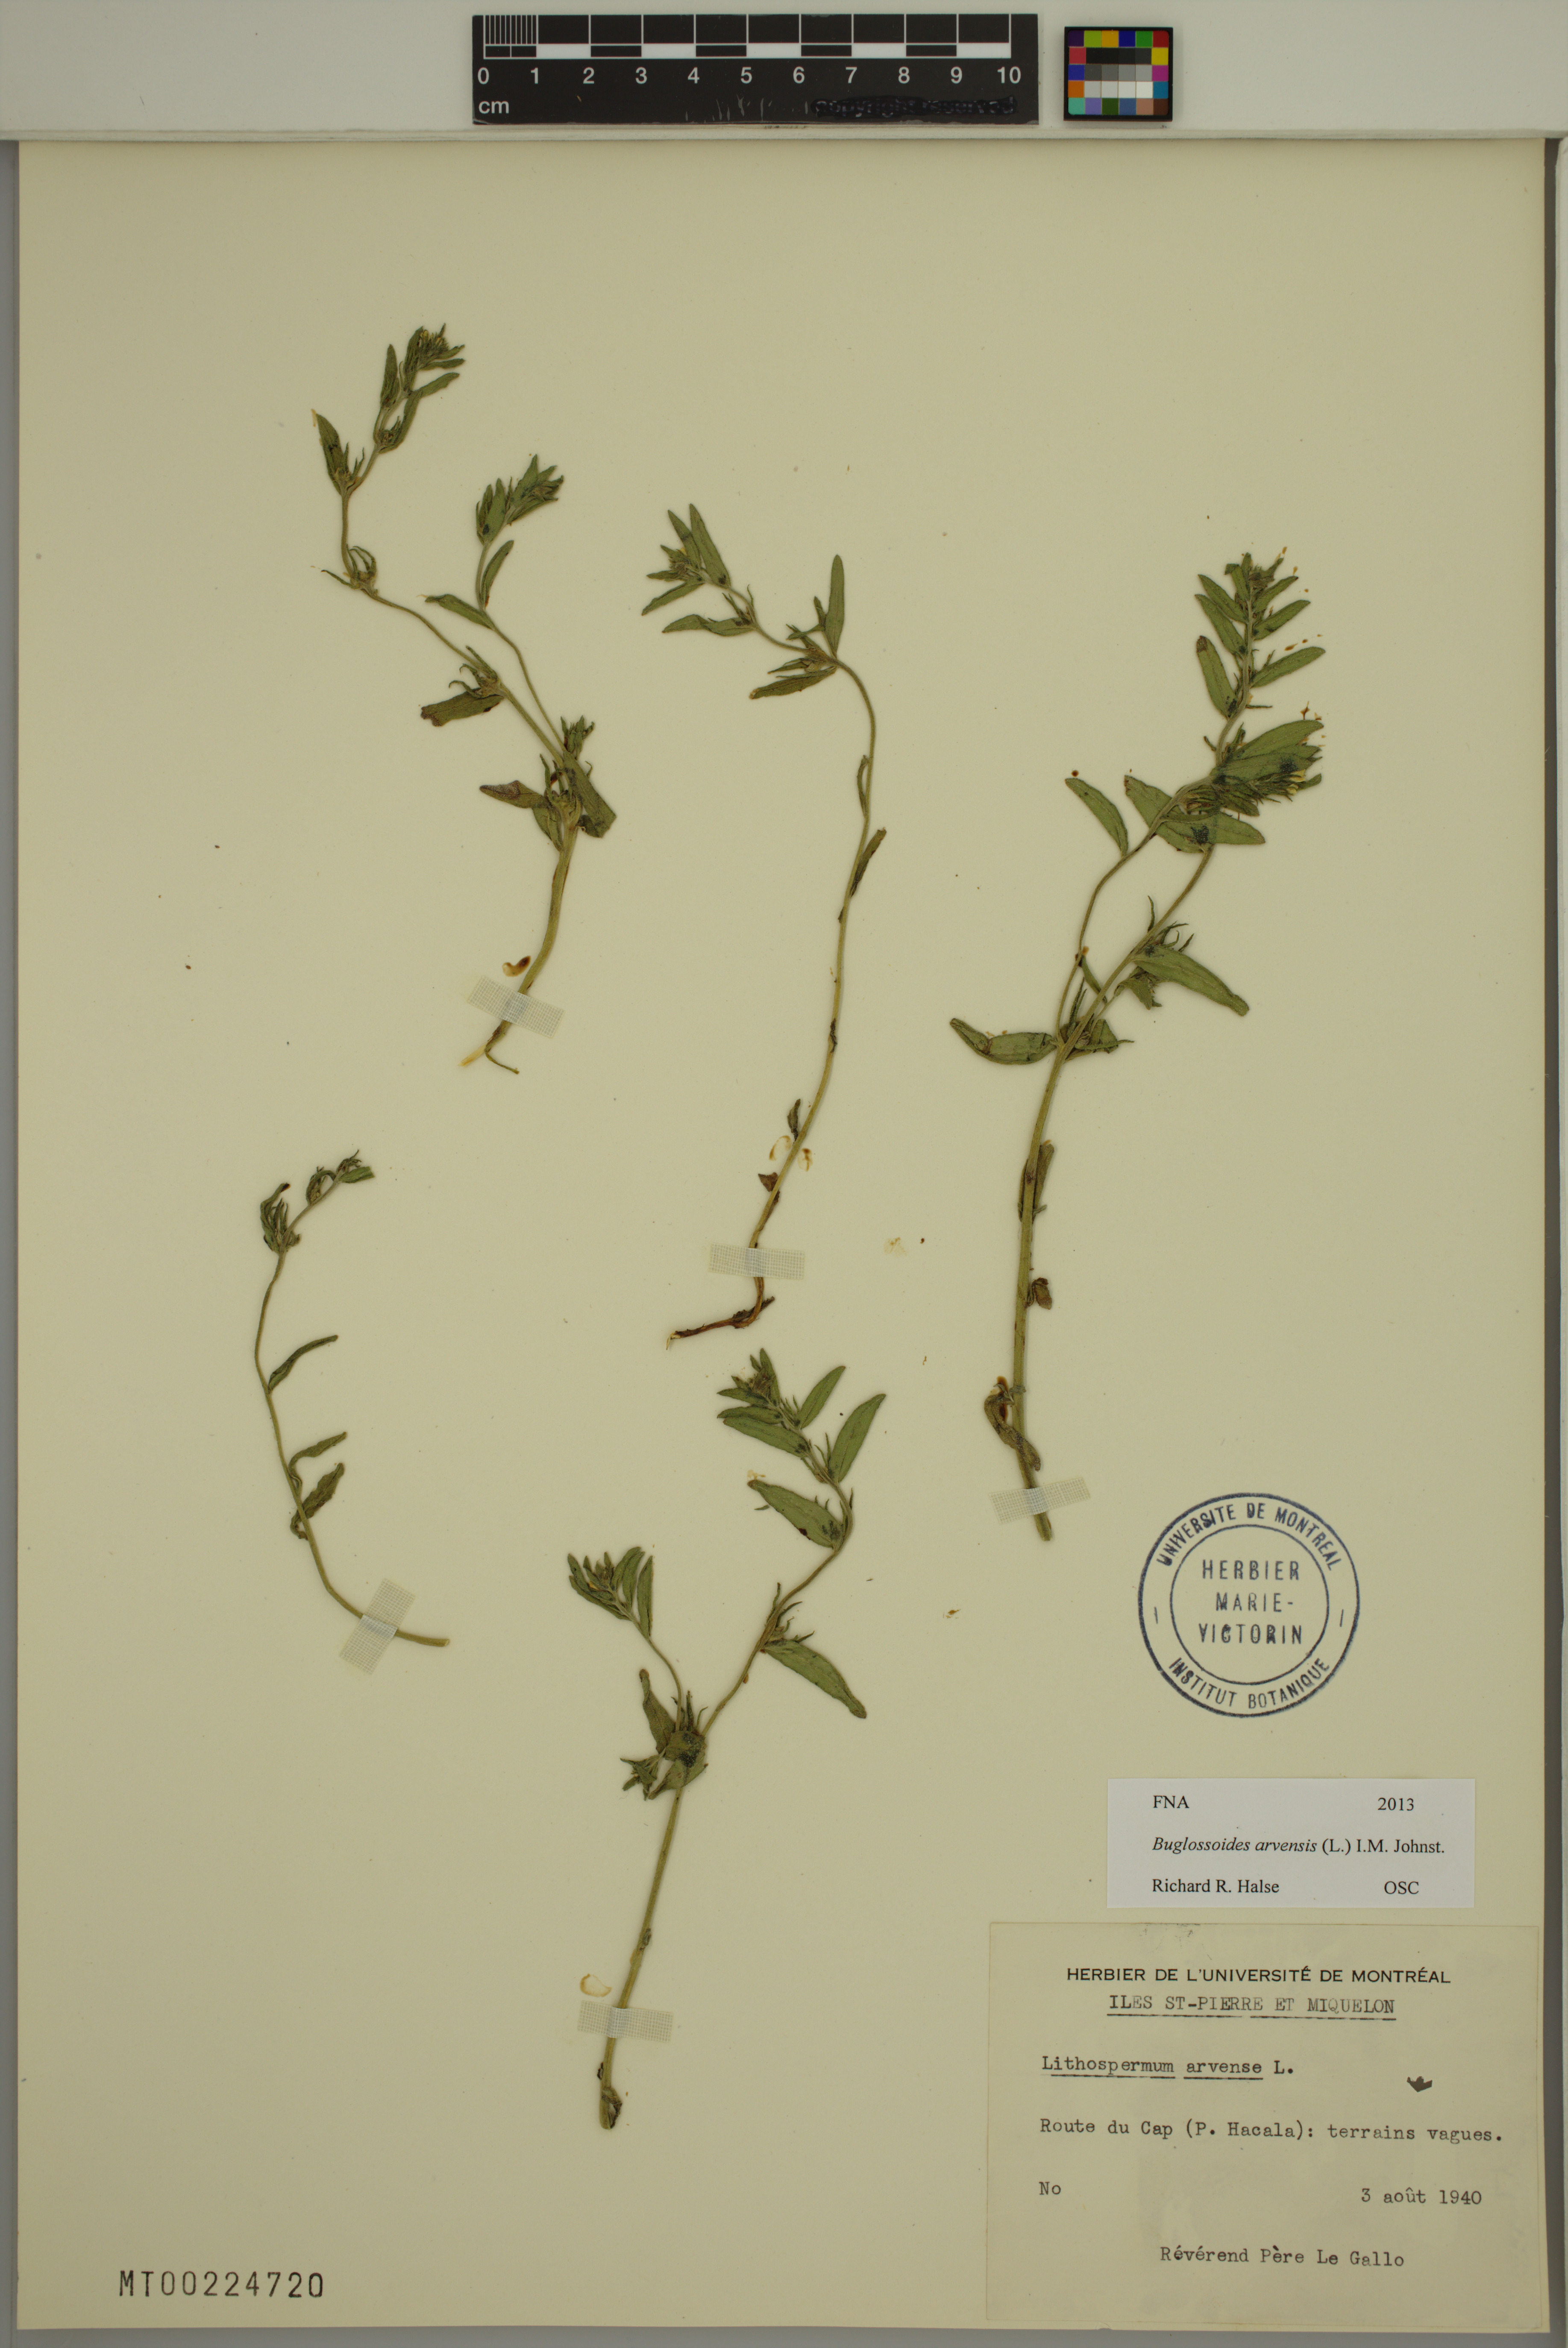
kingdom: Plantae
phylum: Tracheophyta
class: Magnoliopsida
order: Boraginales
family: Boraginaceae
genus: Buglossoides
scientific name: Buglossoides arvensis
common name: Corn gromwell
